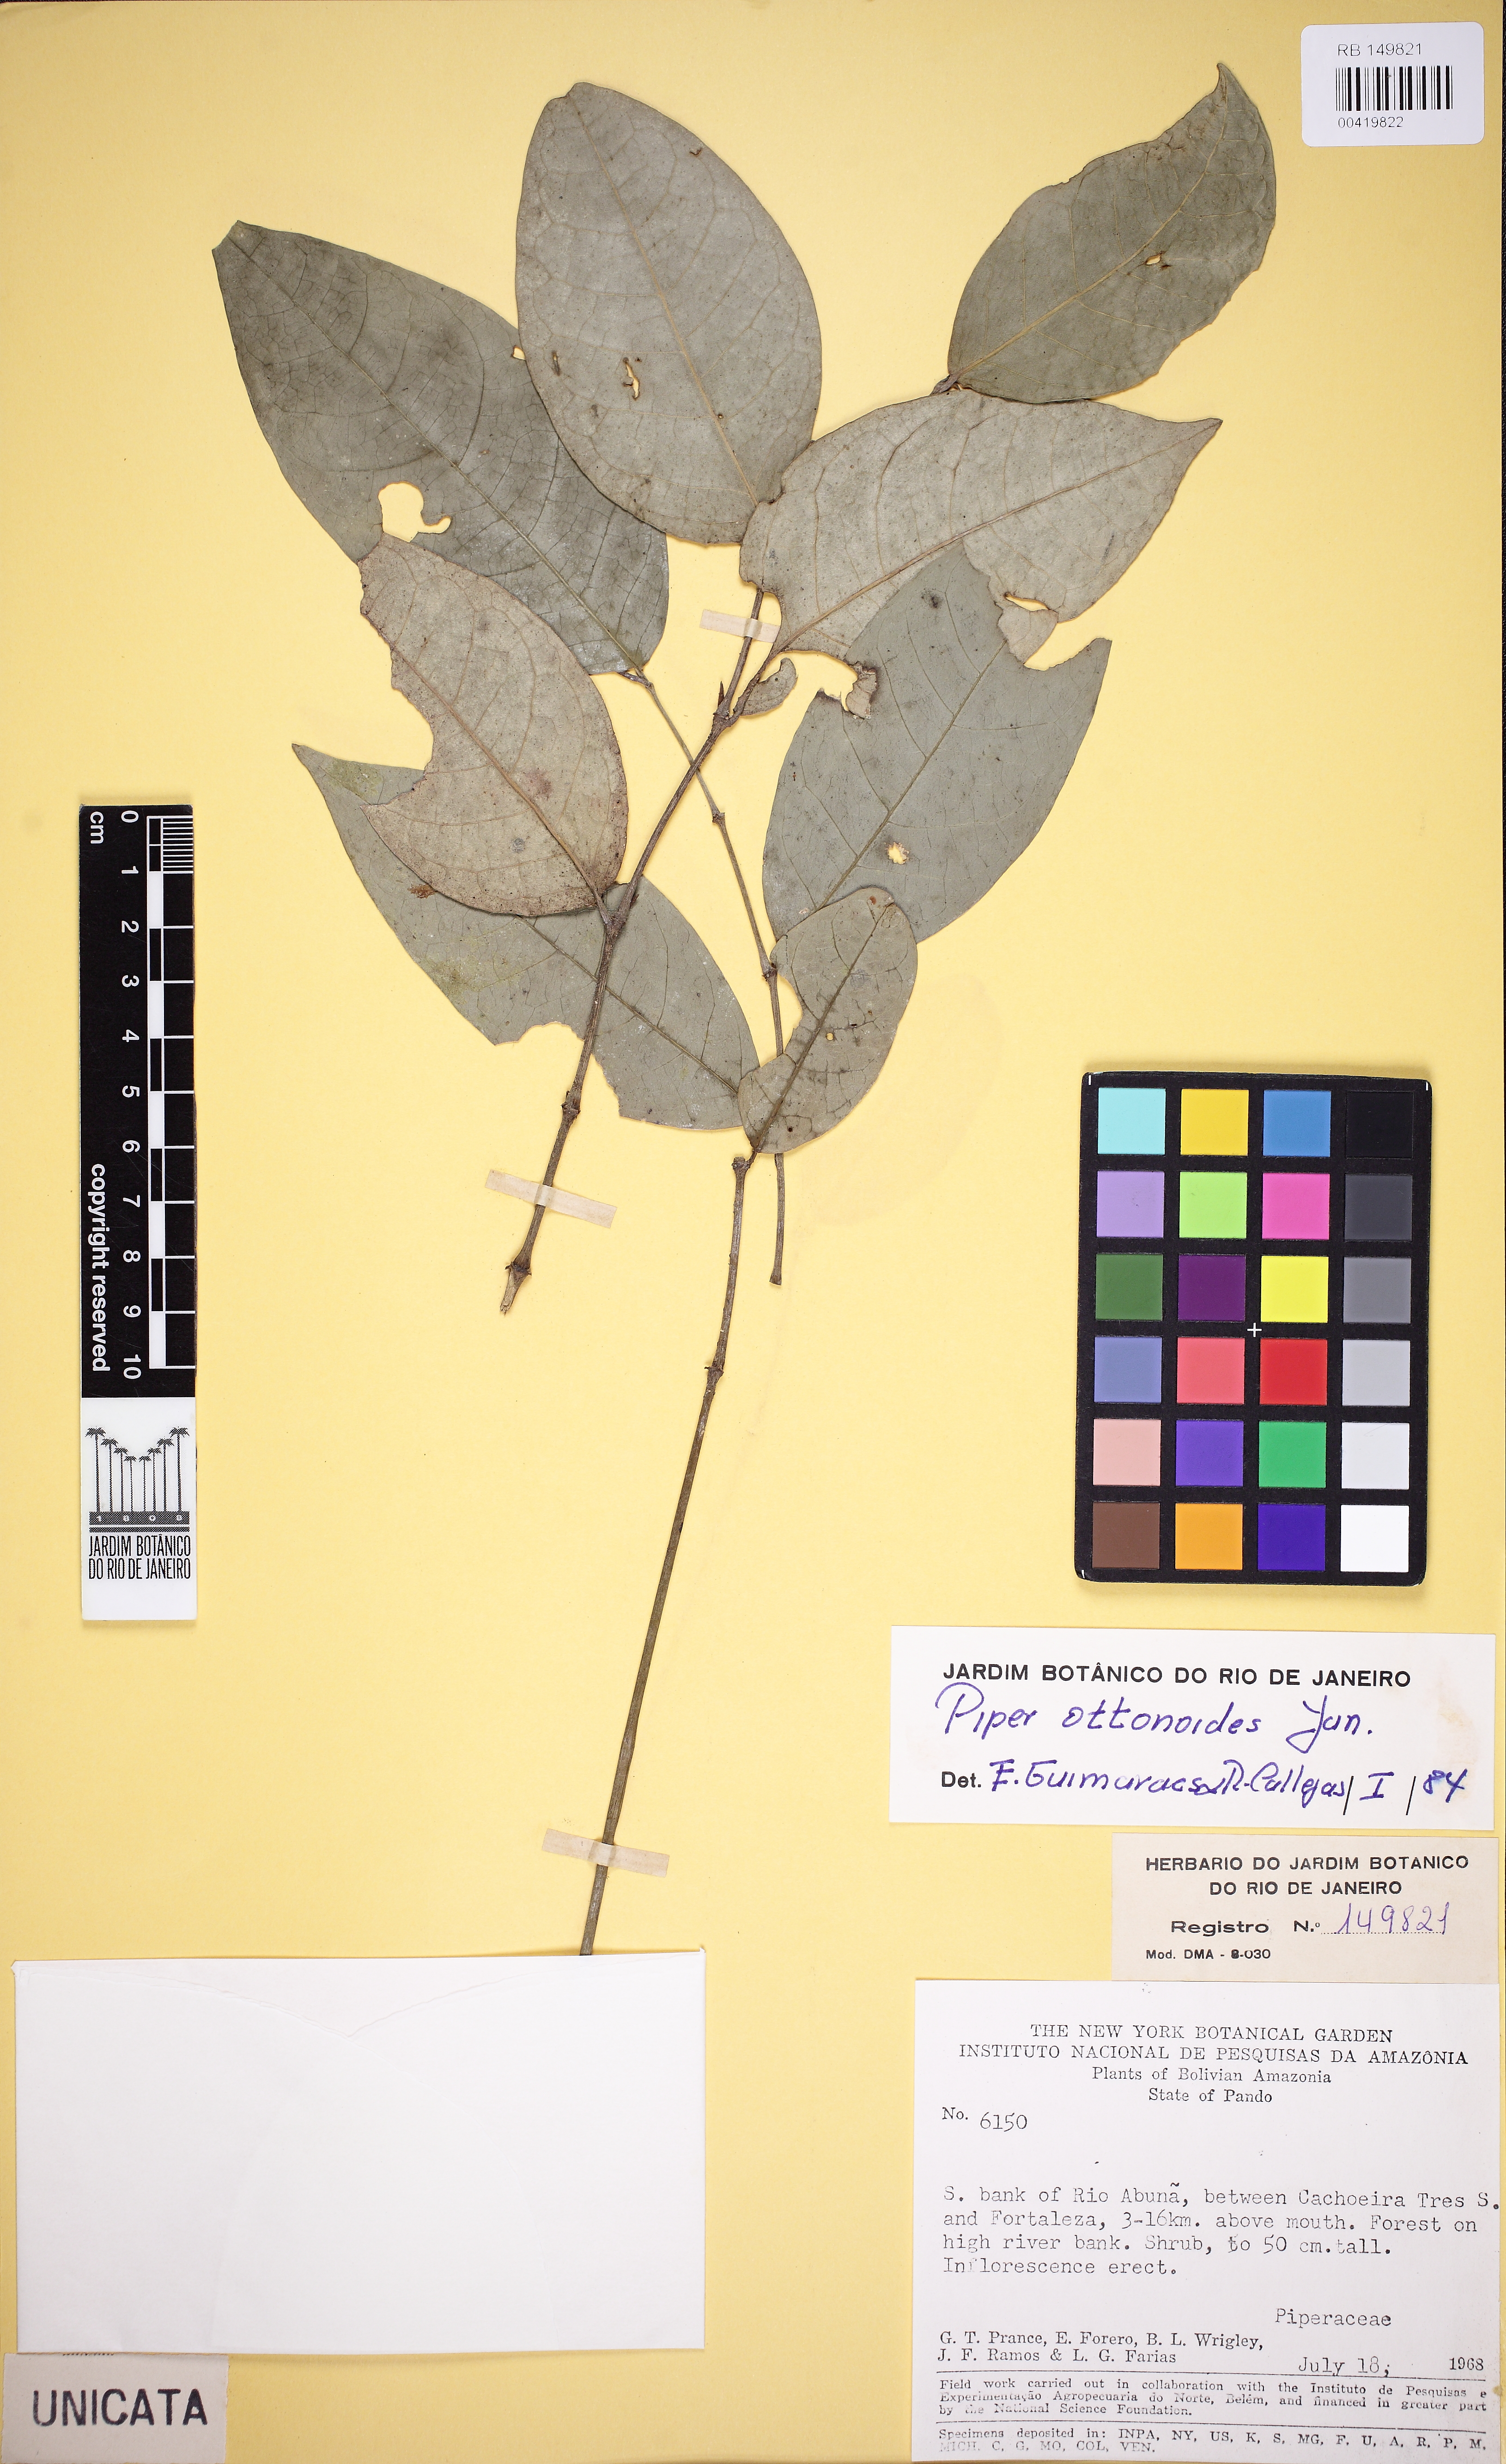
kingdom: Plantae
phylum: Tracheophyta
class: Magnoliopsida
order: Piperales
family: Piperaceae
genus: Piper
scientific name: Piper ottonoides
